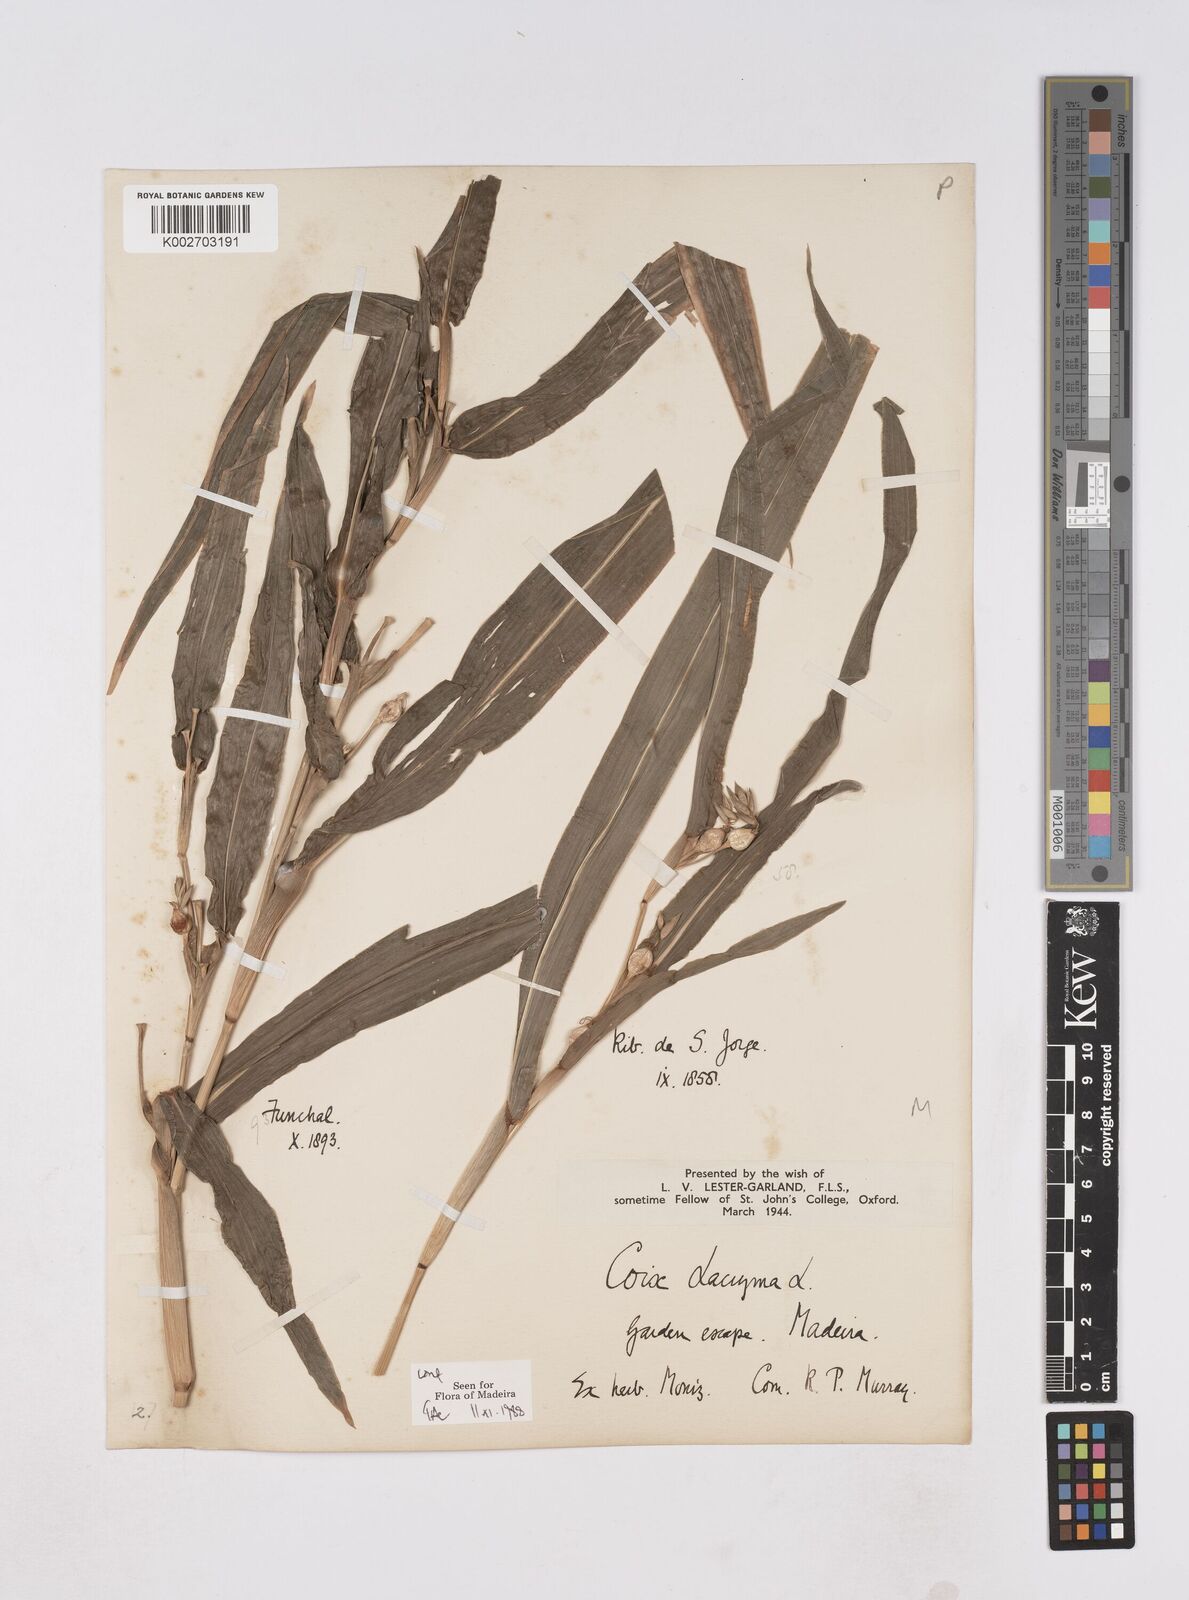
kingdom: Plantae
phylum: Tracheophyta
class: Liliopsida
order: Poales
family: Poaceae
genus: Coix
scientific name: Coix lacryma-jobi
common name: Job's tears
